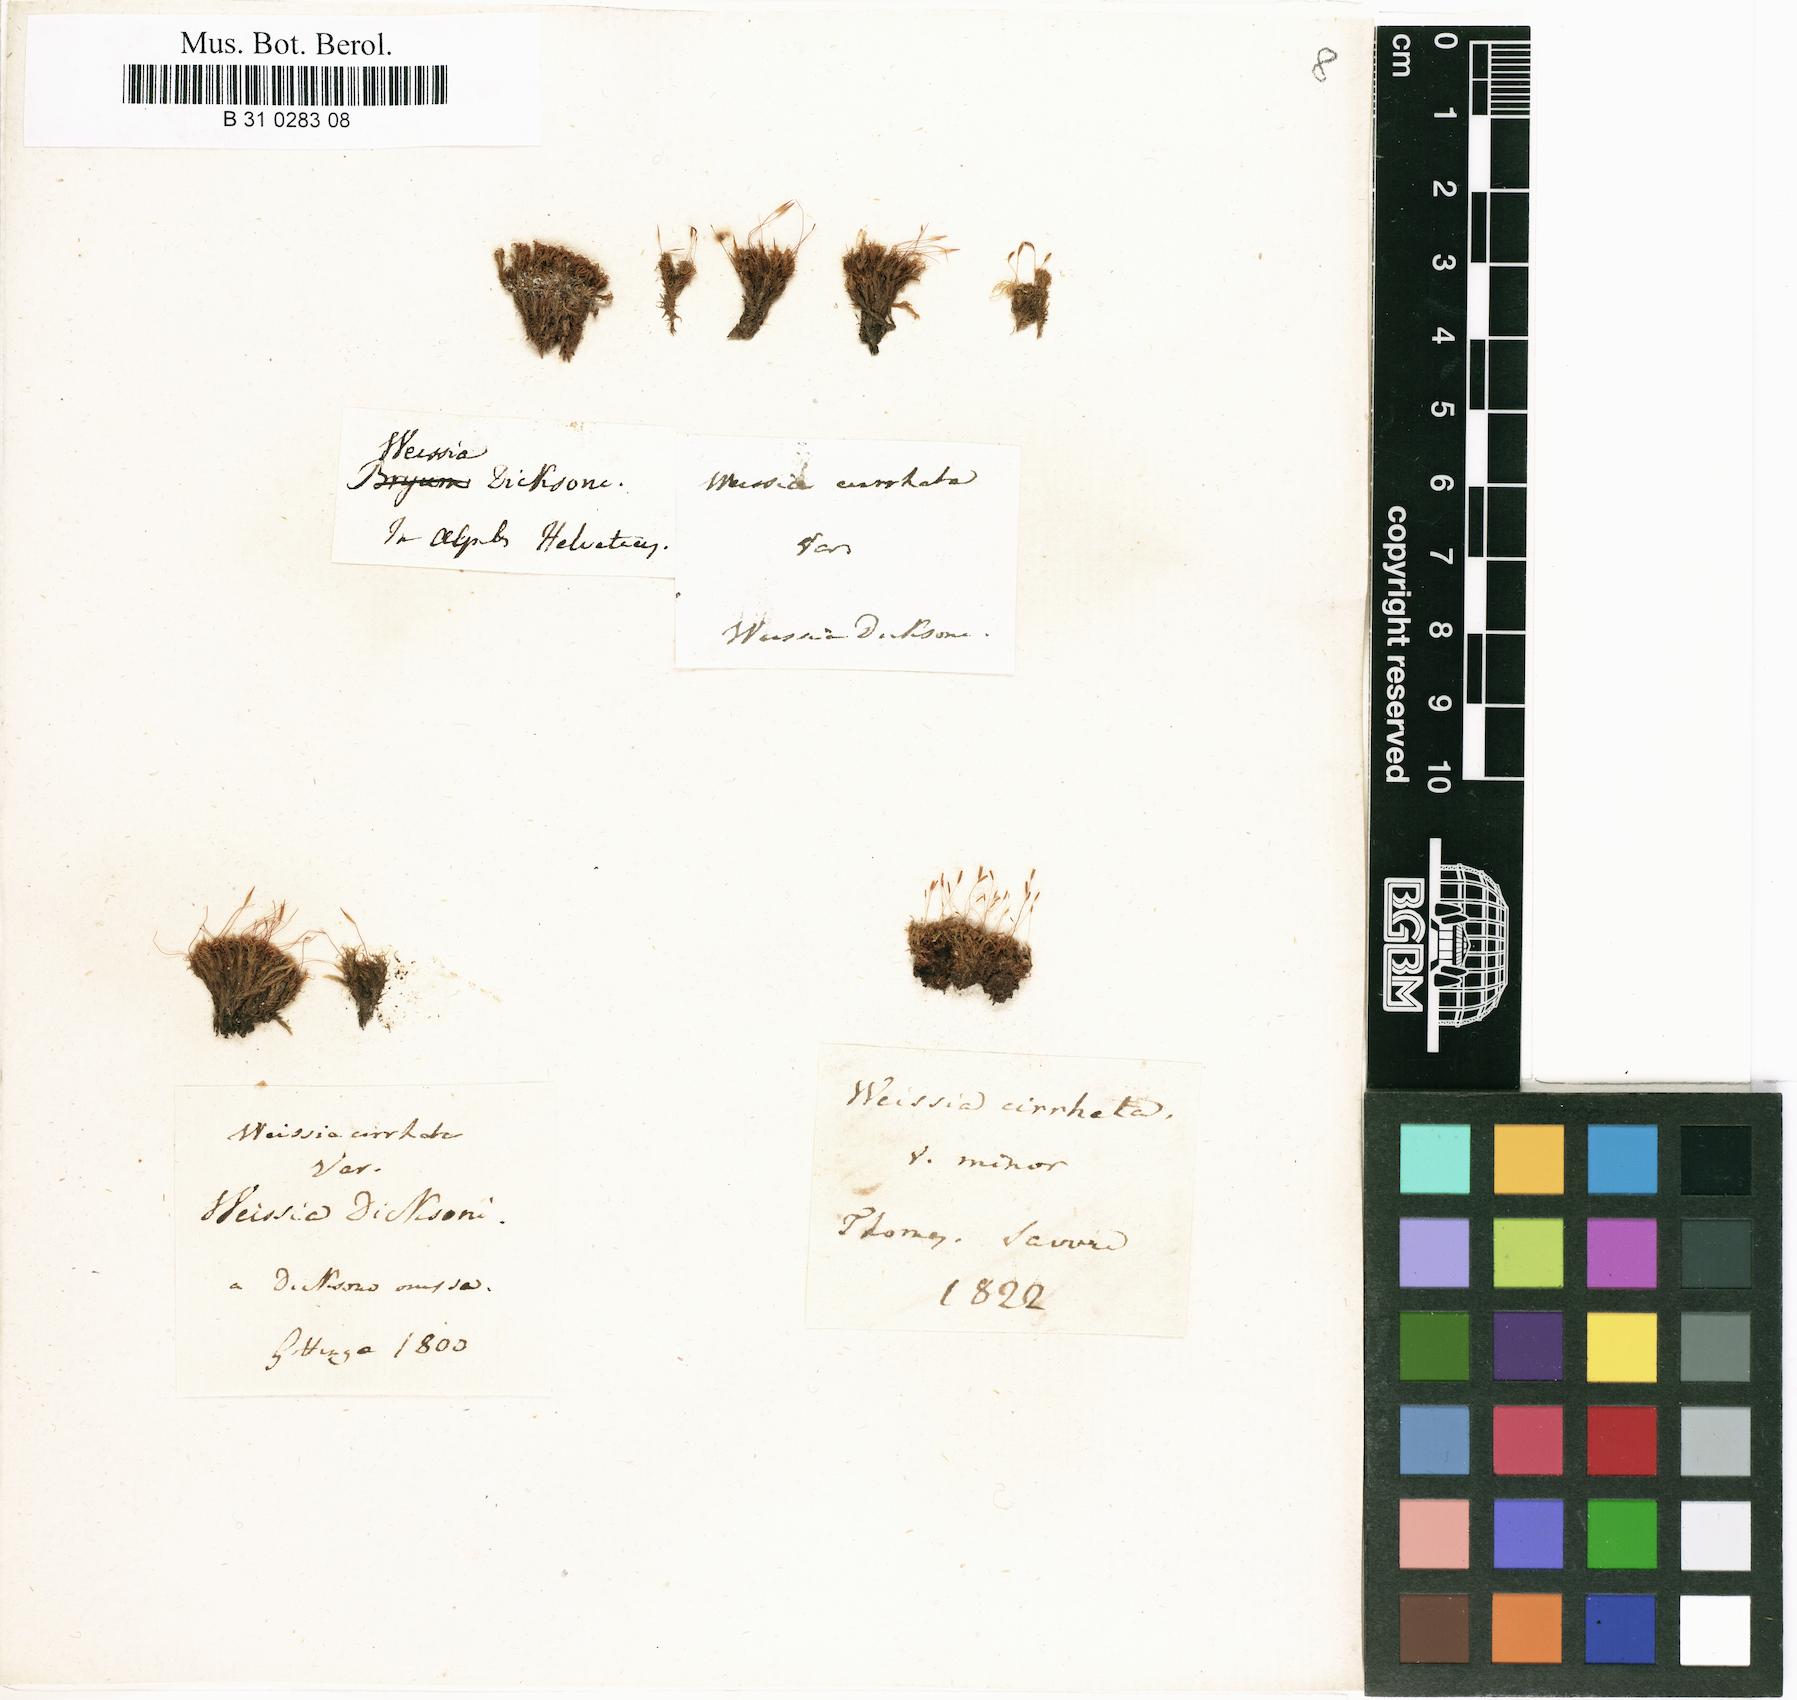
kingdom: Plantae
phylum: Bryophyta
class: Bryopsida
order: Dicranales
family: Rhabdoweisiaceae
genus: Dicranoweisia
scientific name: Dicranoweisia cirrata
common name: Common pincushion
